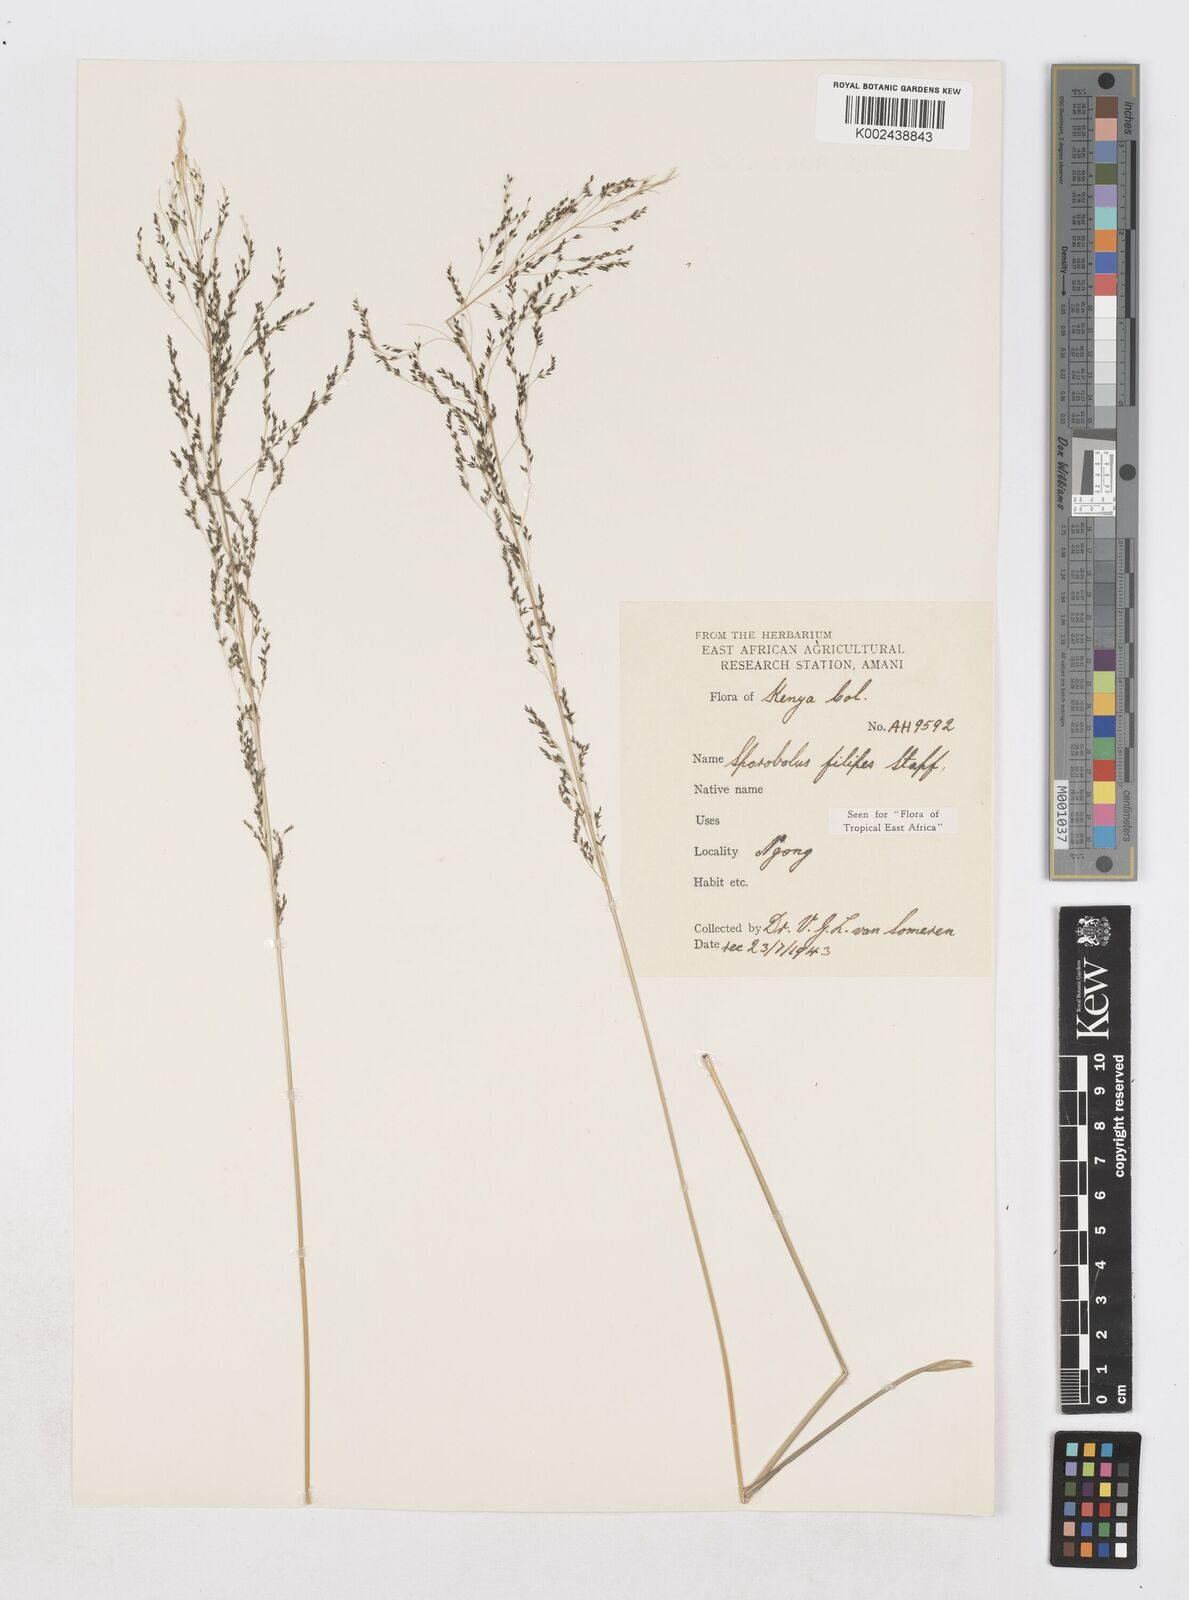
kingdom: Plantae
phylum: Tracheophyta
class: Liliopsida
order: Poales
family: Poaceae
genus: Sporobolus
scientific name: Sporobolus agrostoides
